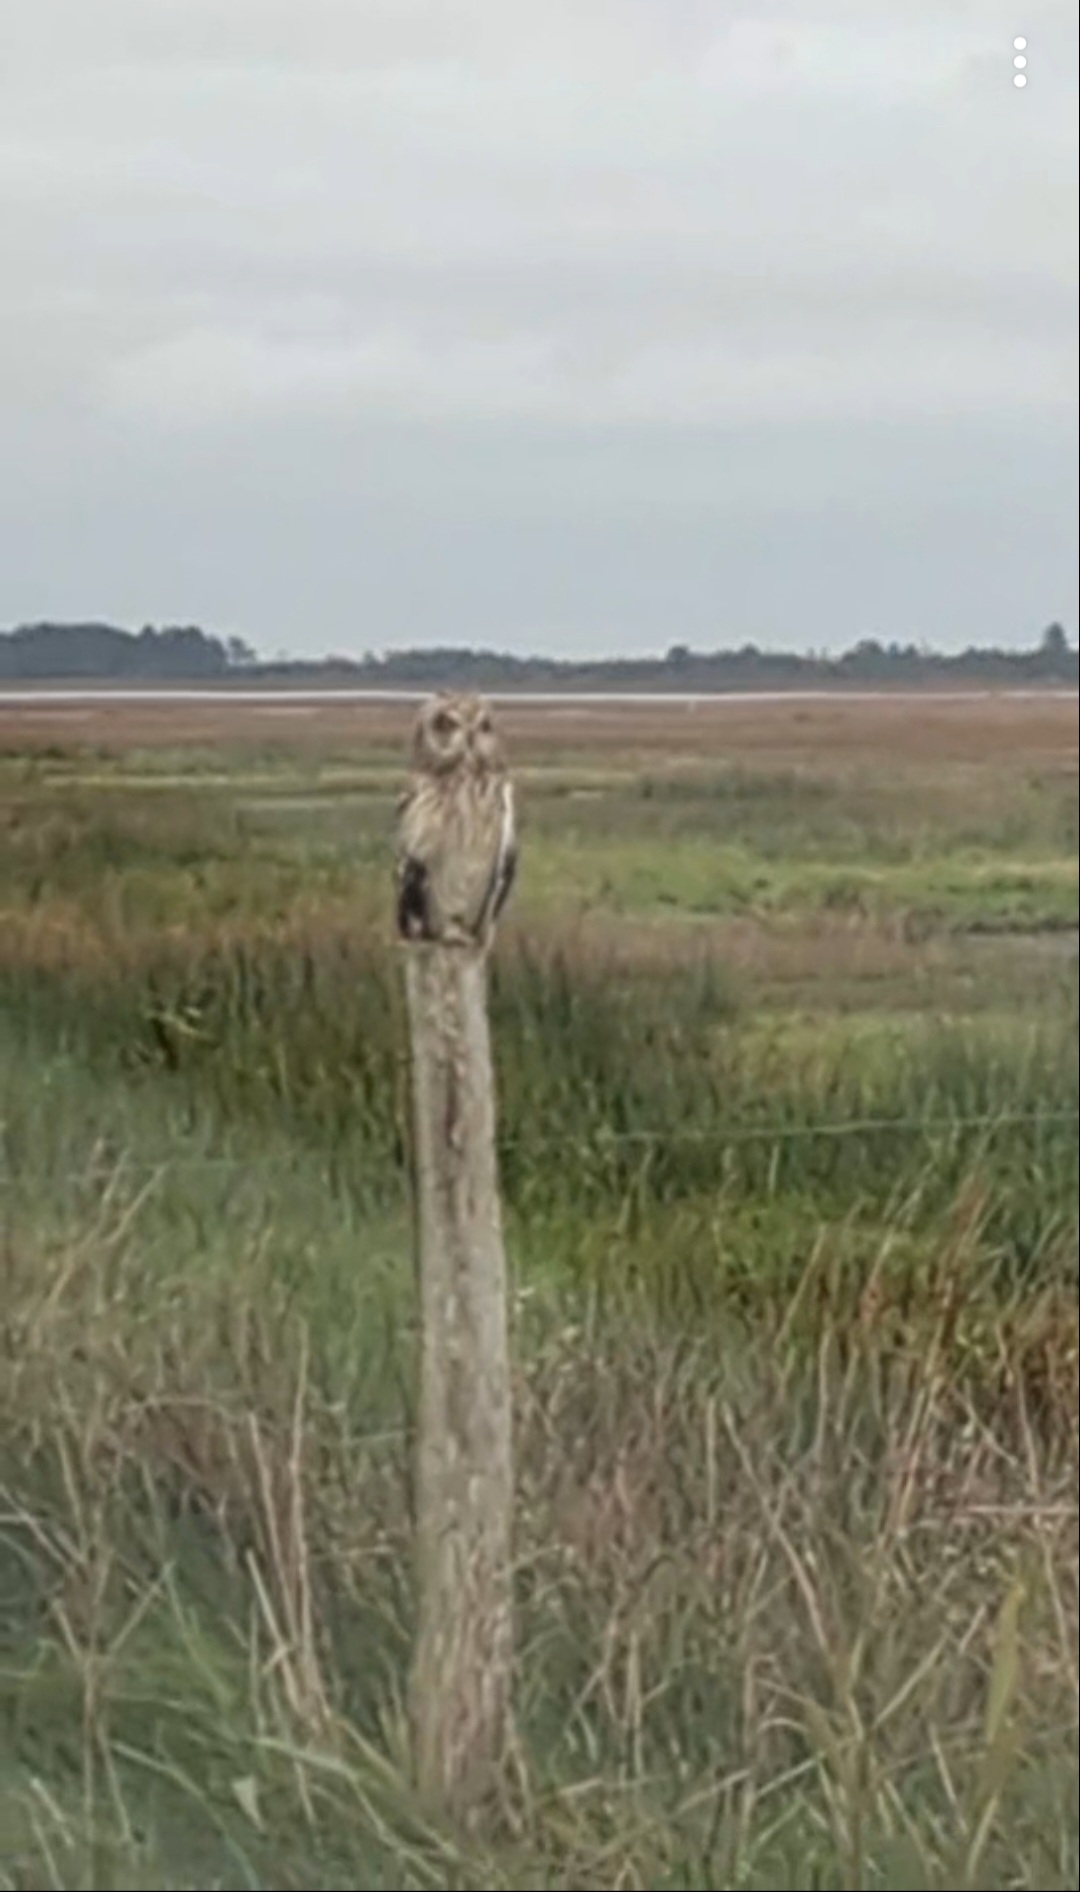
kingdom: Animalia
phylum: Chordata
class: Aves
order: Strigiformes
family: Strigidae
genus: Asio
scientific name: Asio flammeus
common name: Mosehornugle
